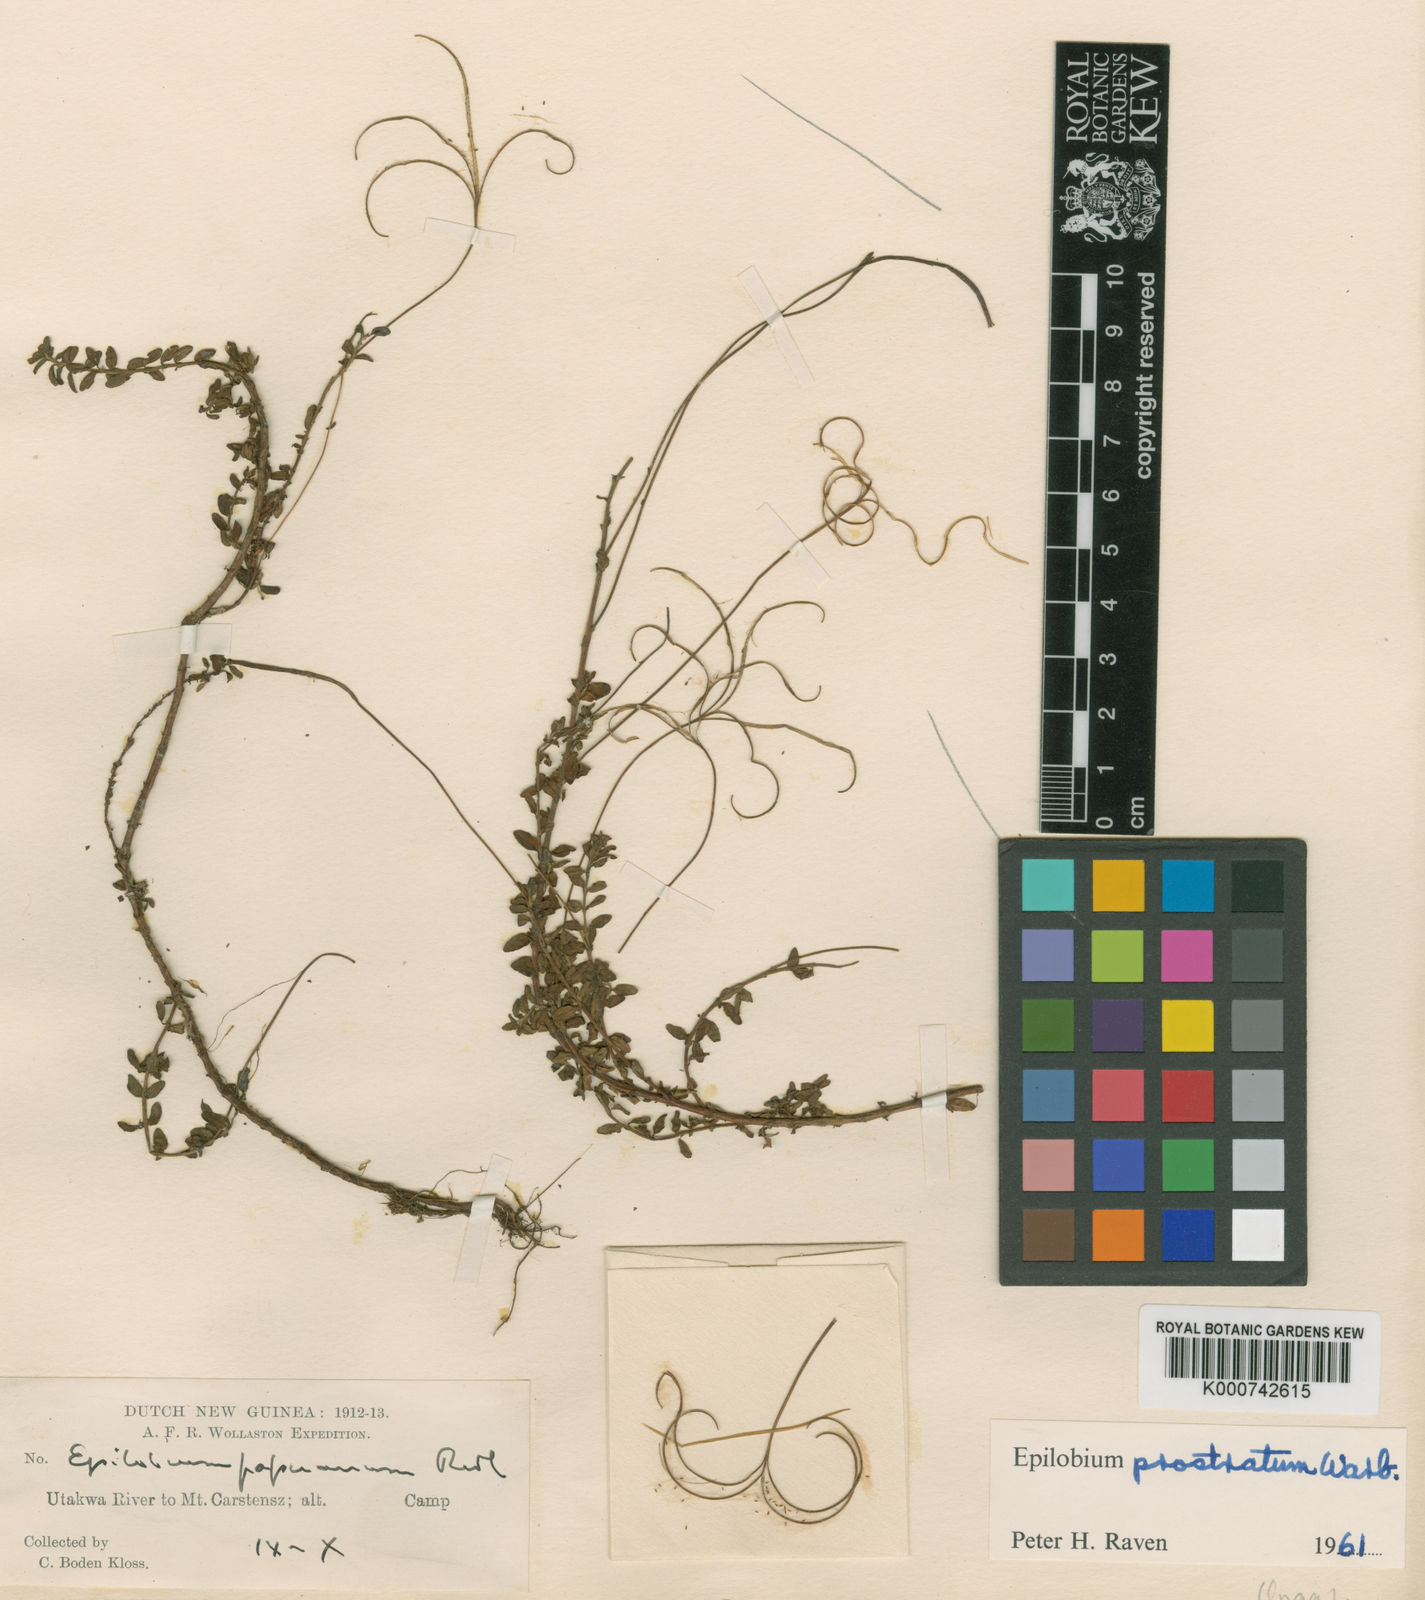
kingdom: Plantae
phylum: Tracheophyta
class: Magnoliopsida
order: Myrtales
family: Onagraceae
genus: Epilobium
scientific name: Epilobium prostratum
